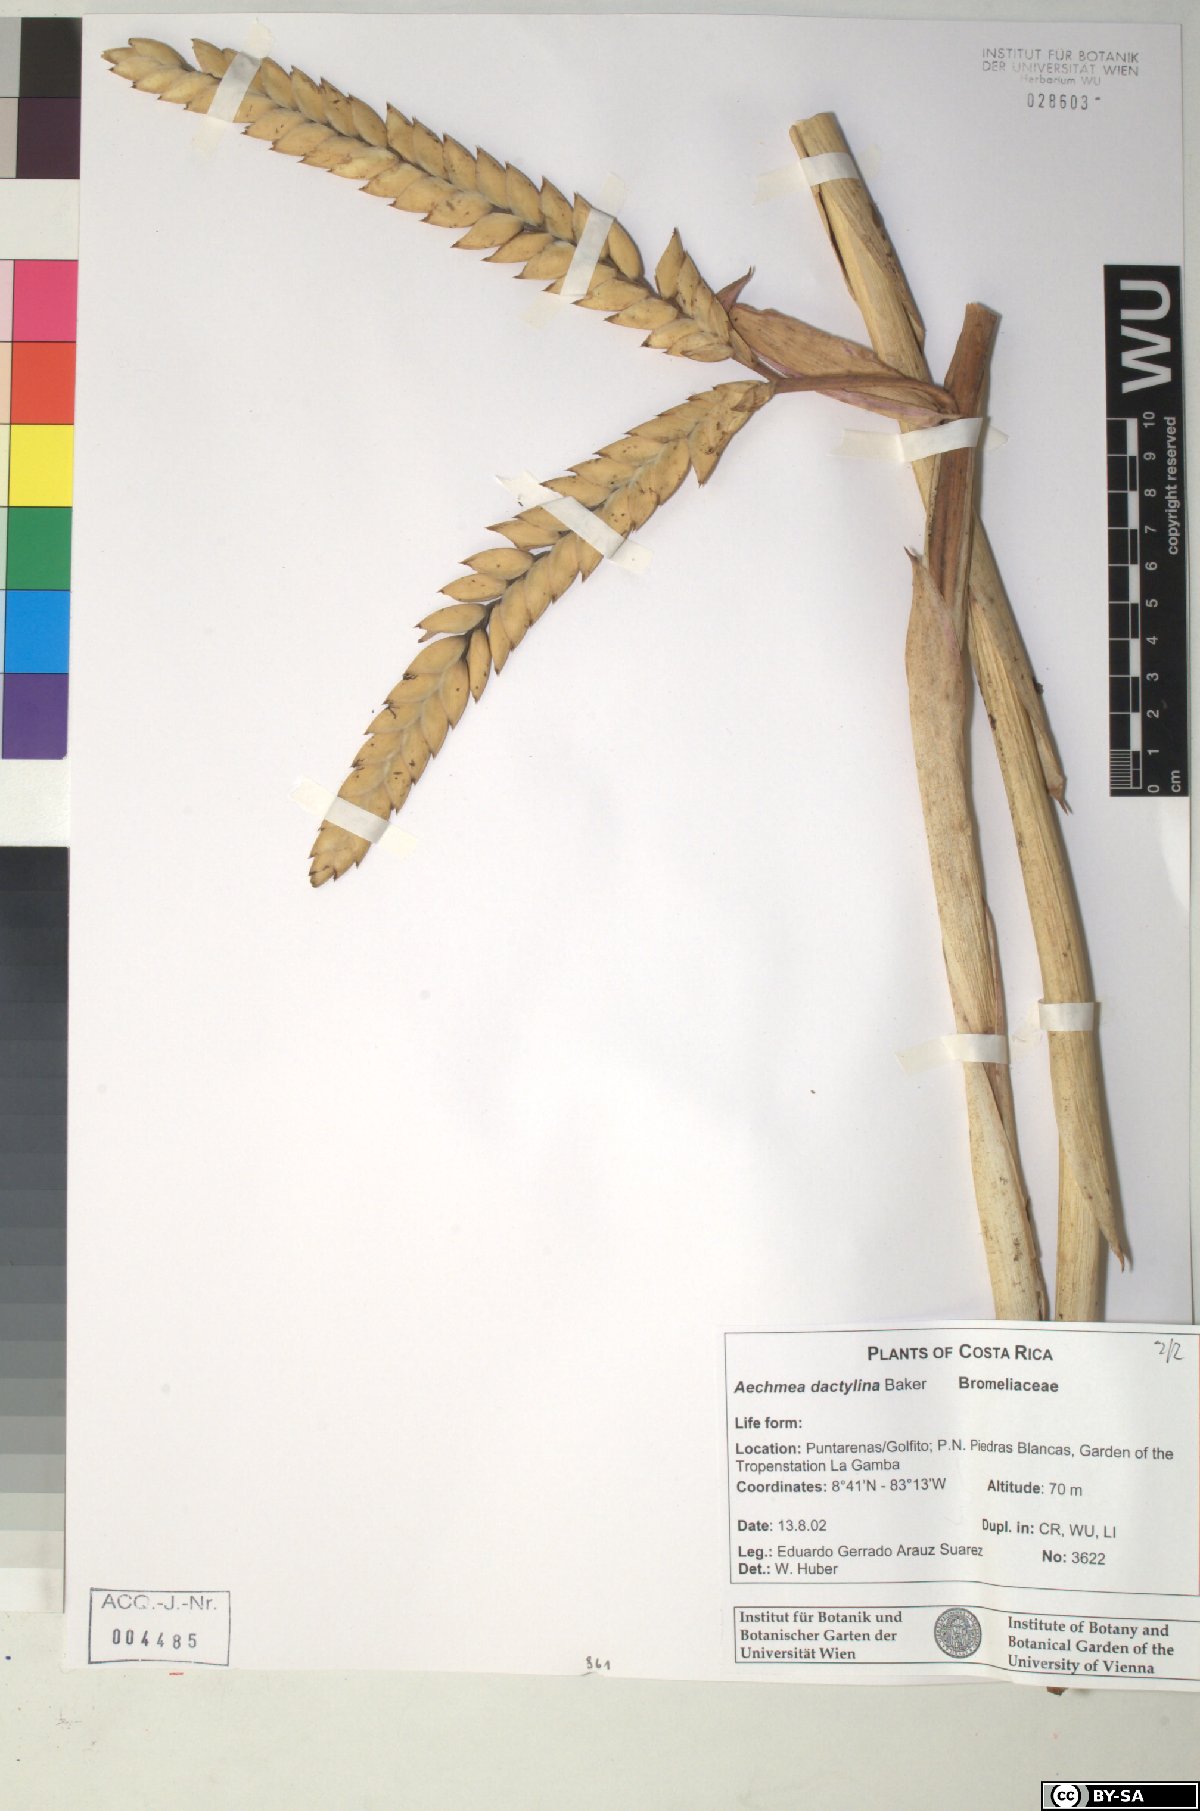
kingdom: Plantae
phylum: Tracheophyta
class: Liliopsida
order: Poales
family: Bromeliaceae
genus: Aechmea
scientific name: Aechmea dactylina
